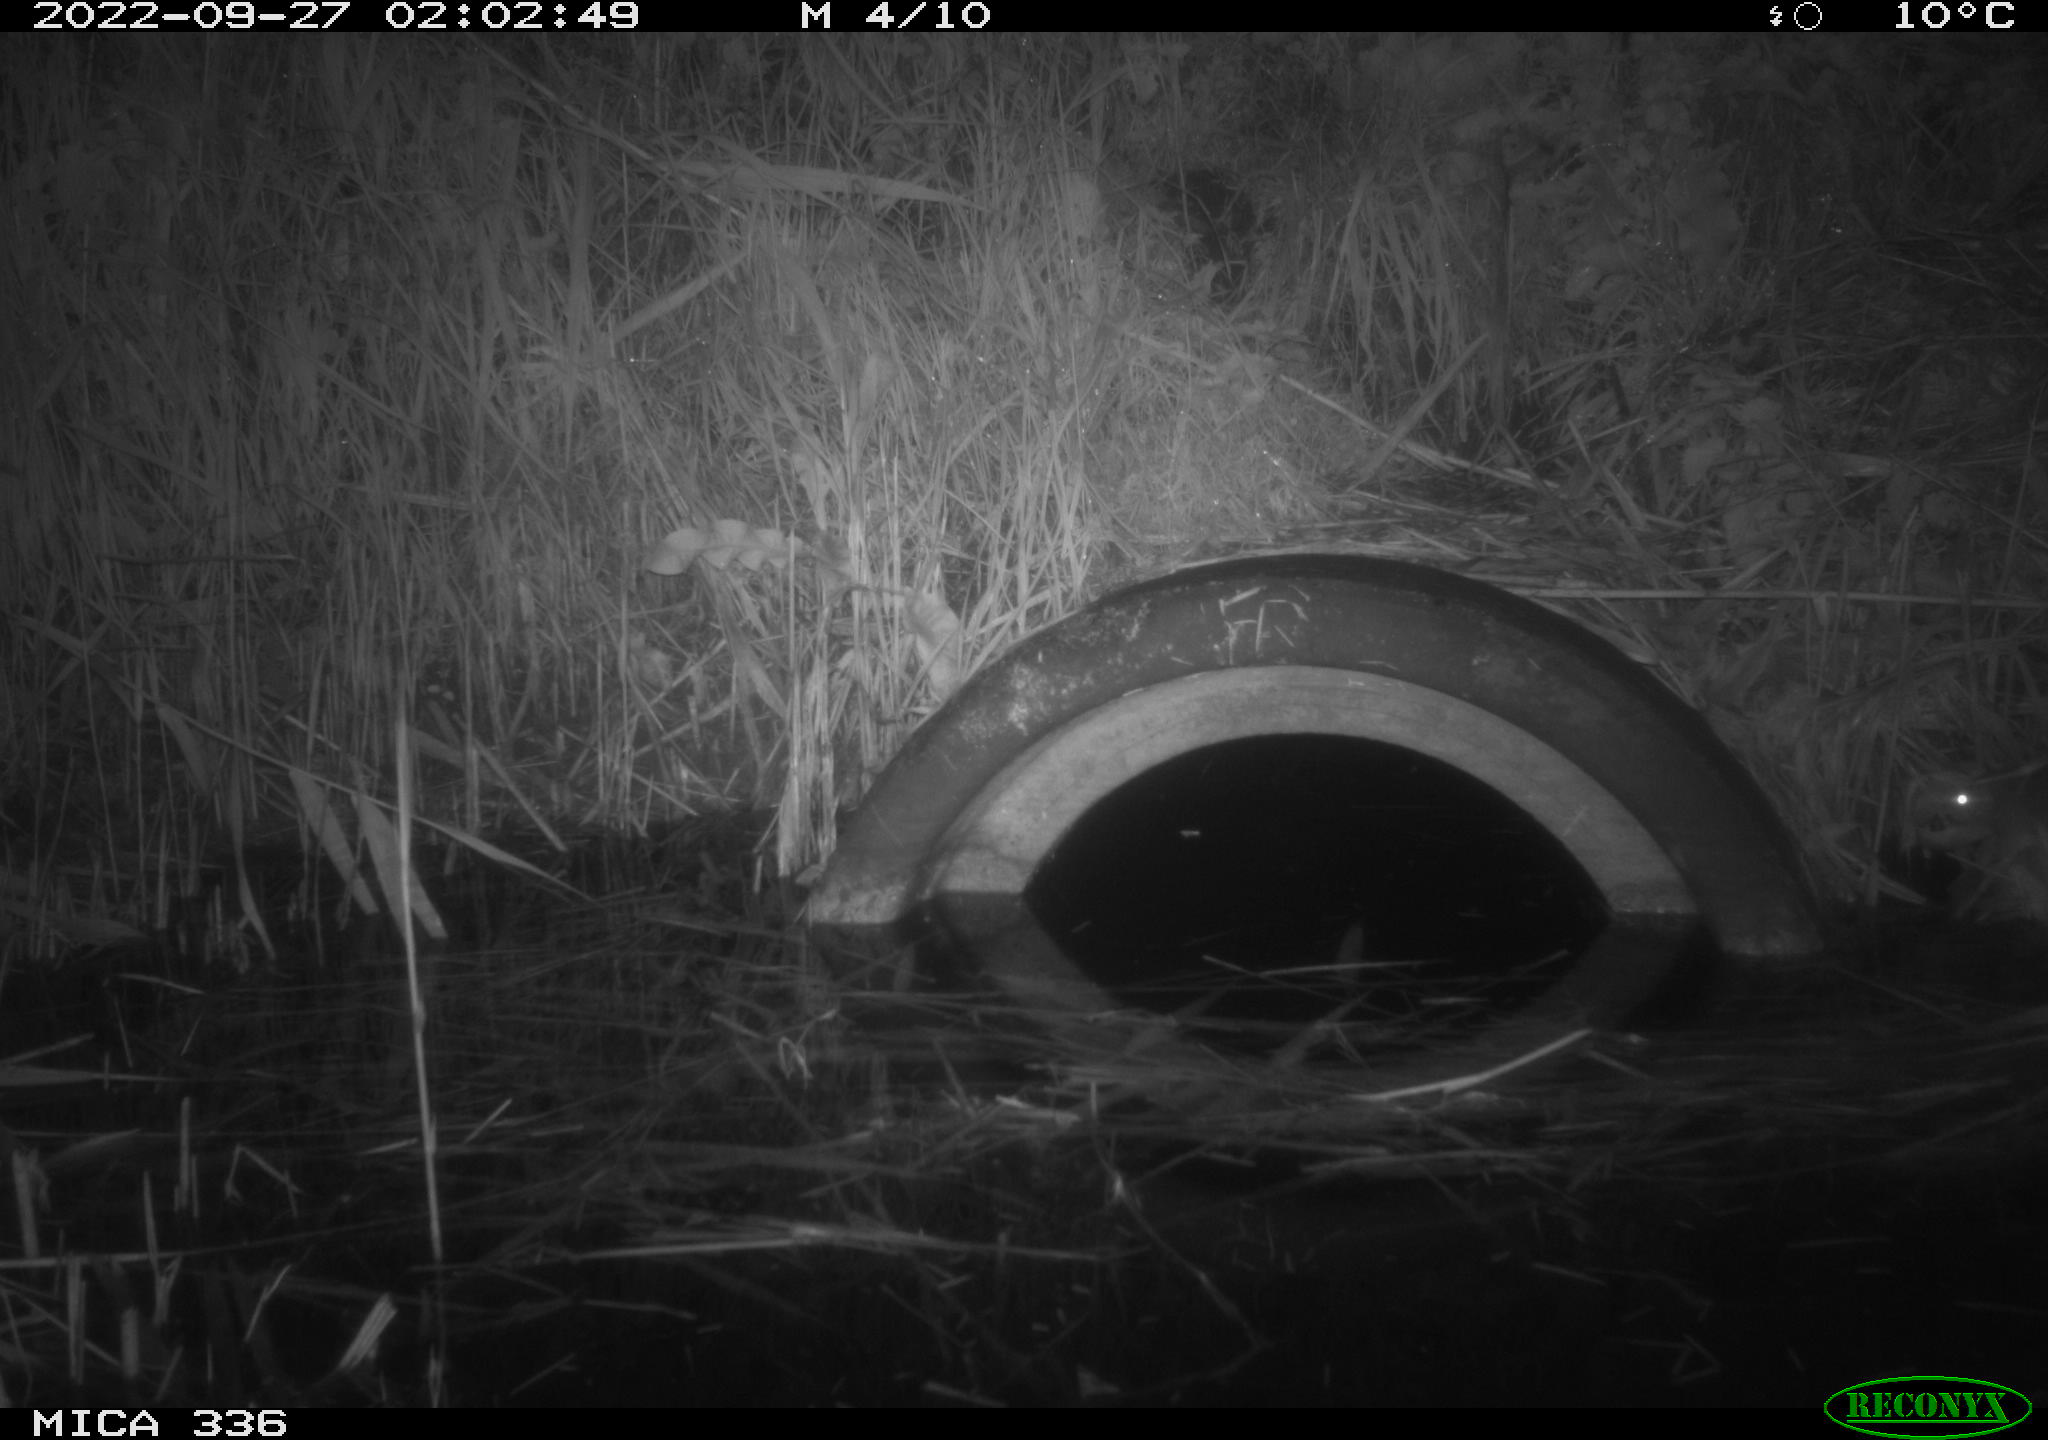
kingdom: Animalia
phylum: Chordata
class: Mammalia
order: Rodentia
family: Muridae
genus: Rattus
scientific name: Rattus norvegicus
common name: Brown rat
